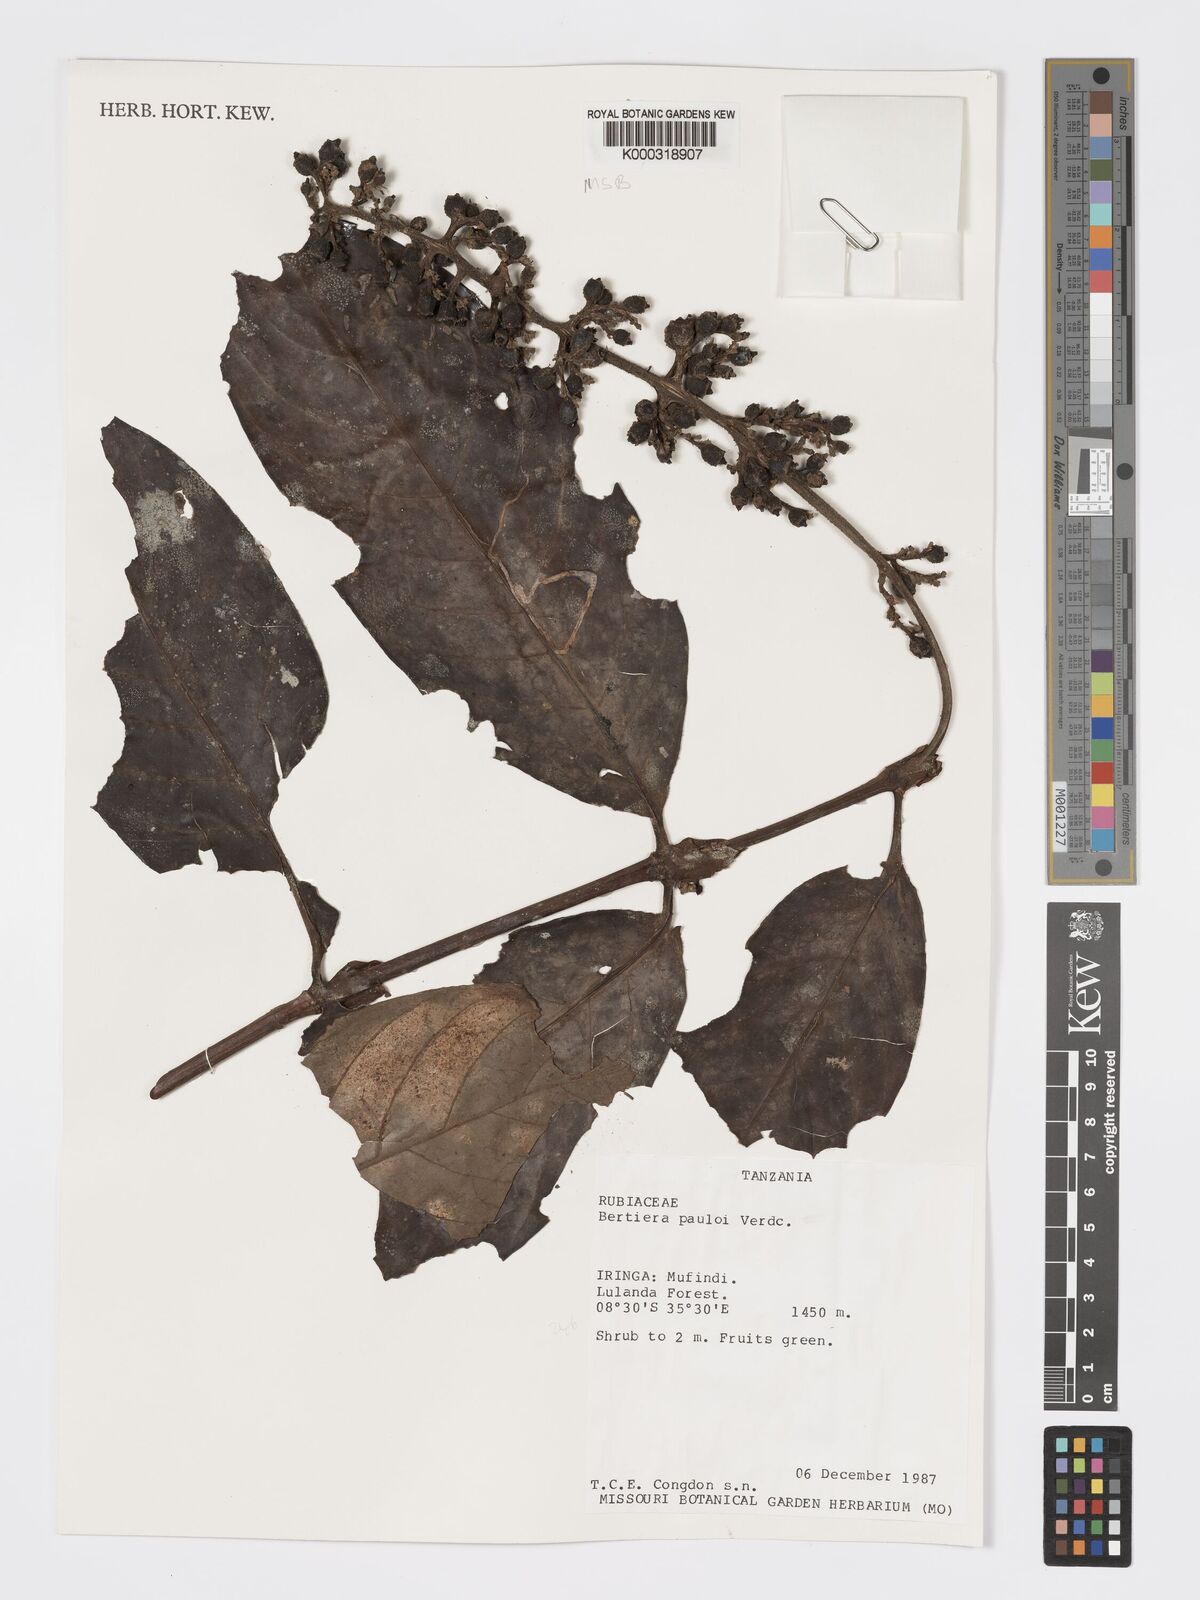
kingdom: Plantae
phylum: Tracheophyta
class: Magnoliopsida
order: Gentianales
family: Rubiaceae
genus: Bertiera
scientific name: Bertiera pauloi
